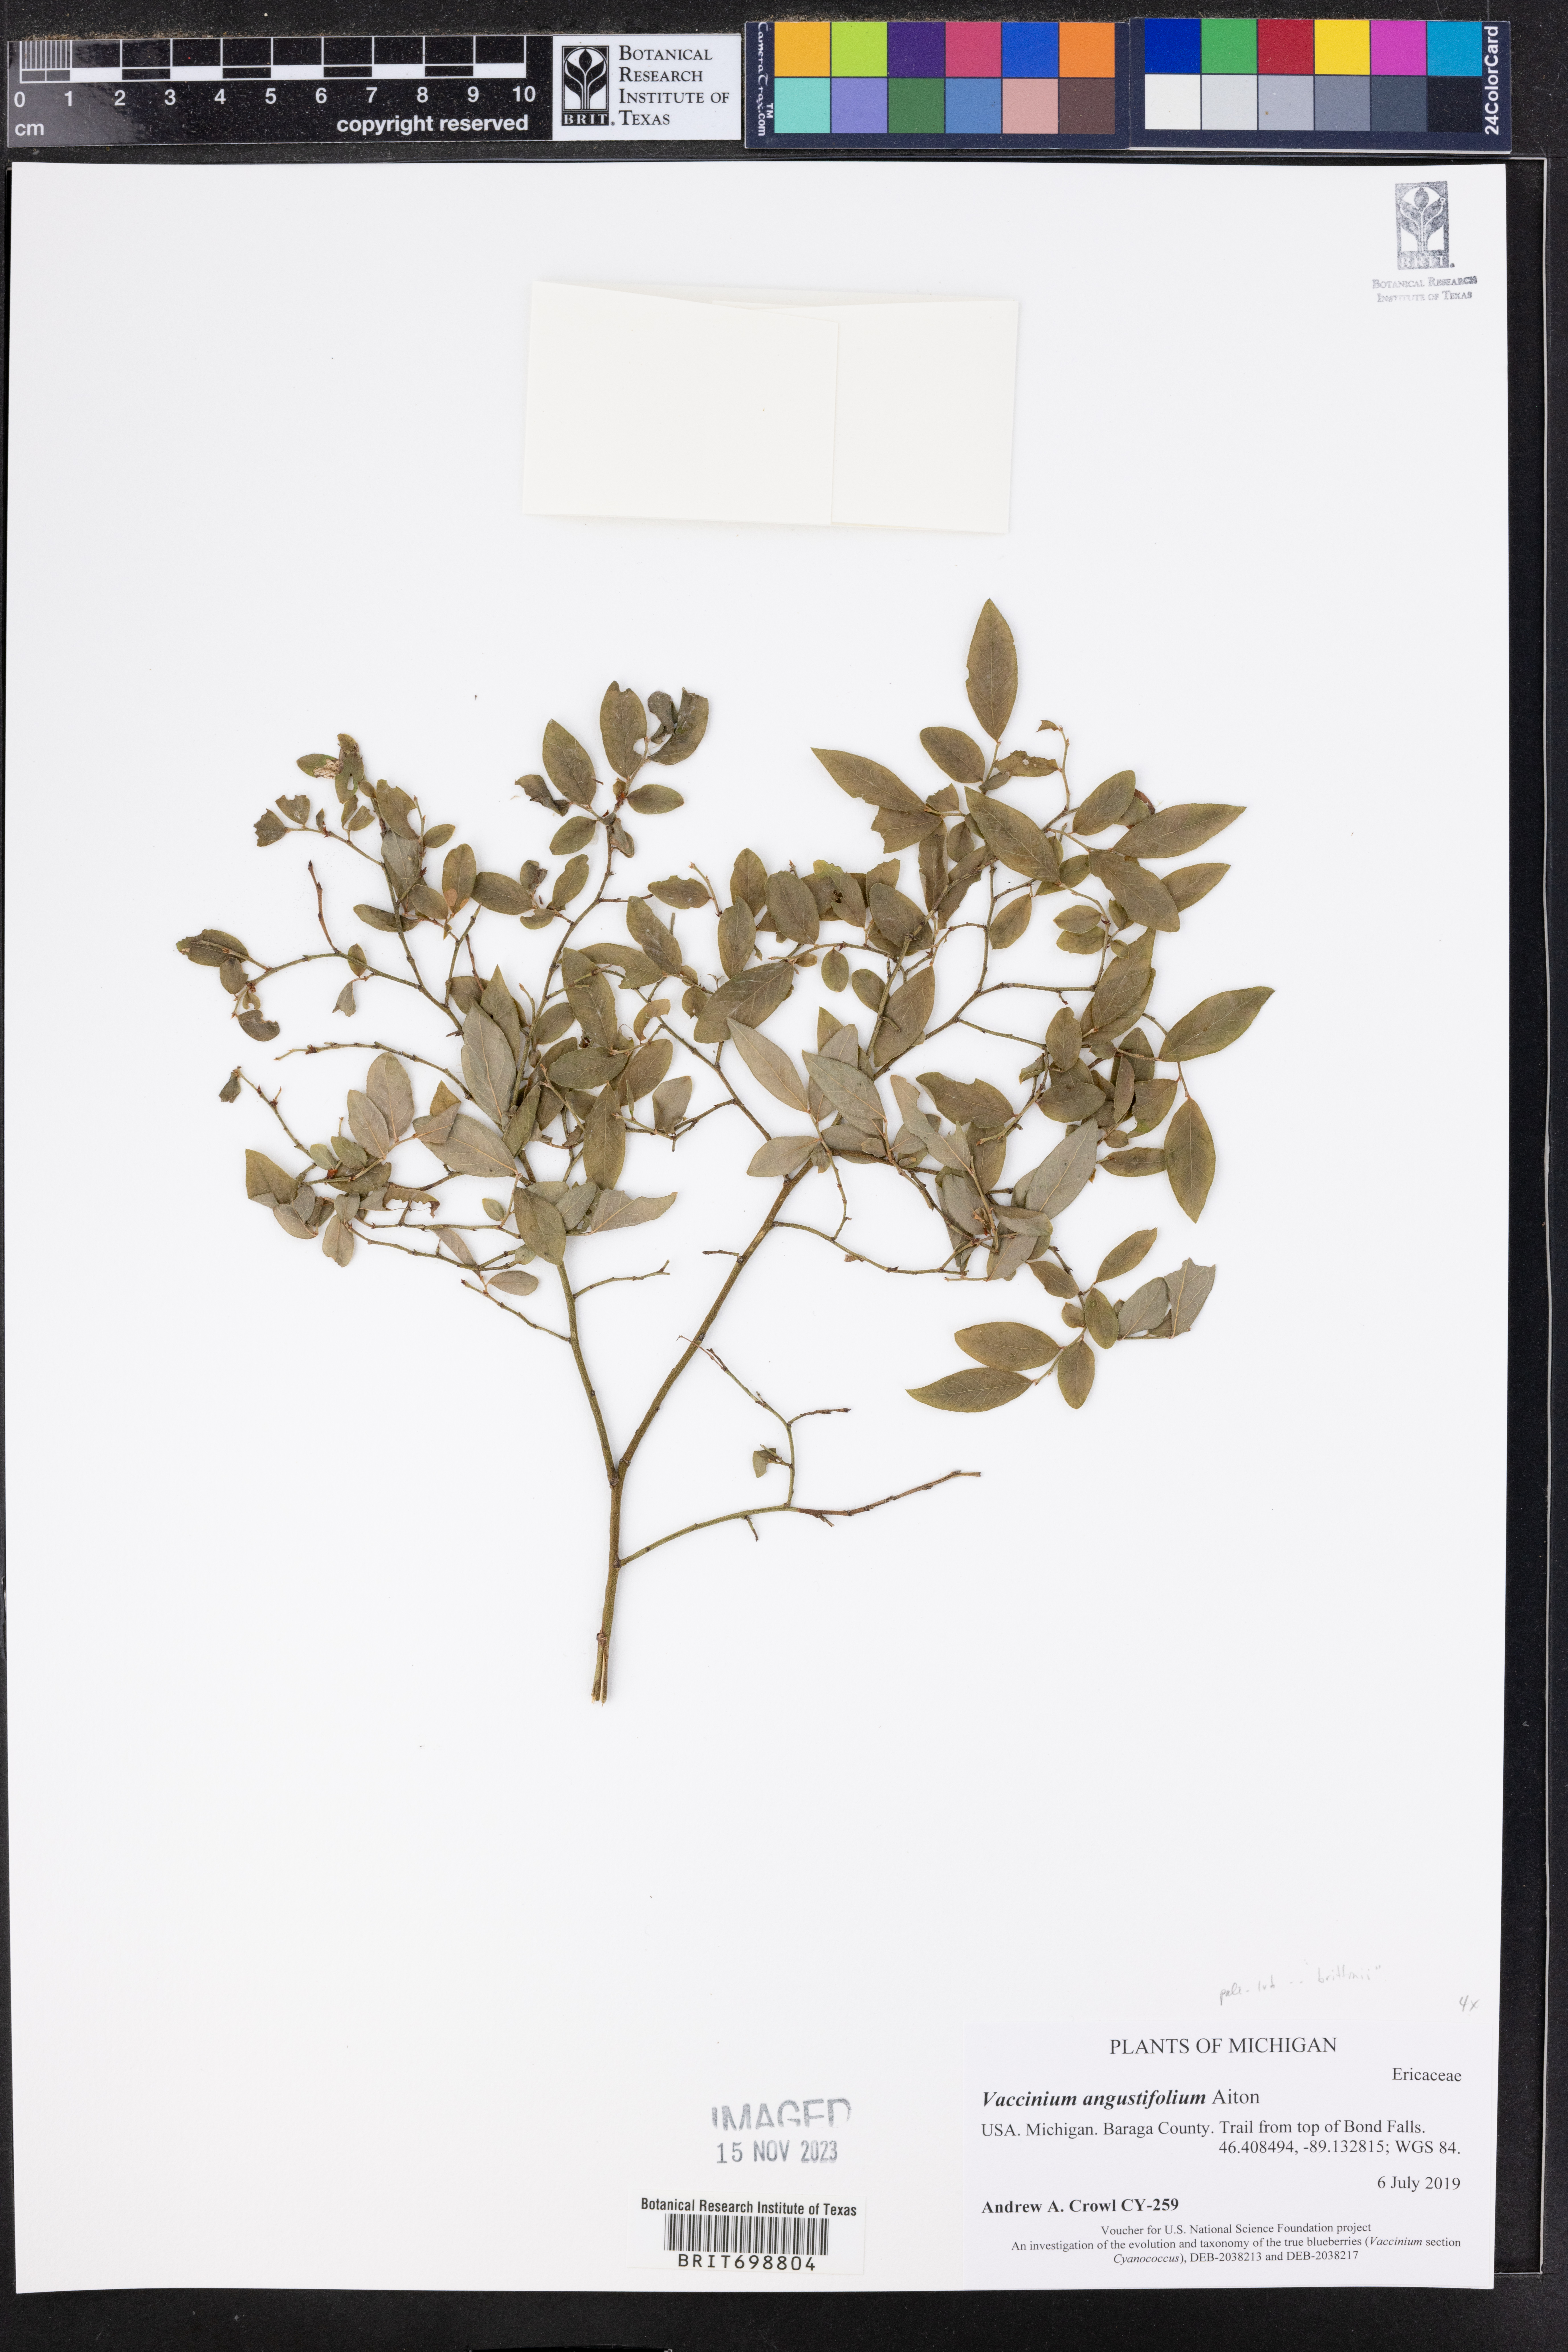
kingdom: Plantae
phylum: Tracheophyta
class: Magnoliopsida
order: Ericales
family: Ericaceae
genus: Vaccinium
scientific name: Vaccinium angustifolium
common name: Early lowbush blueberry
